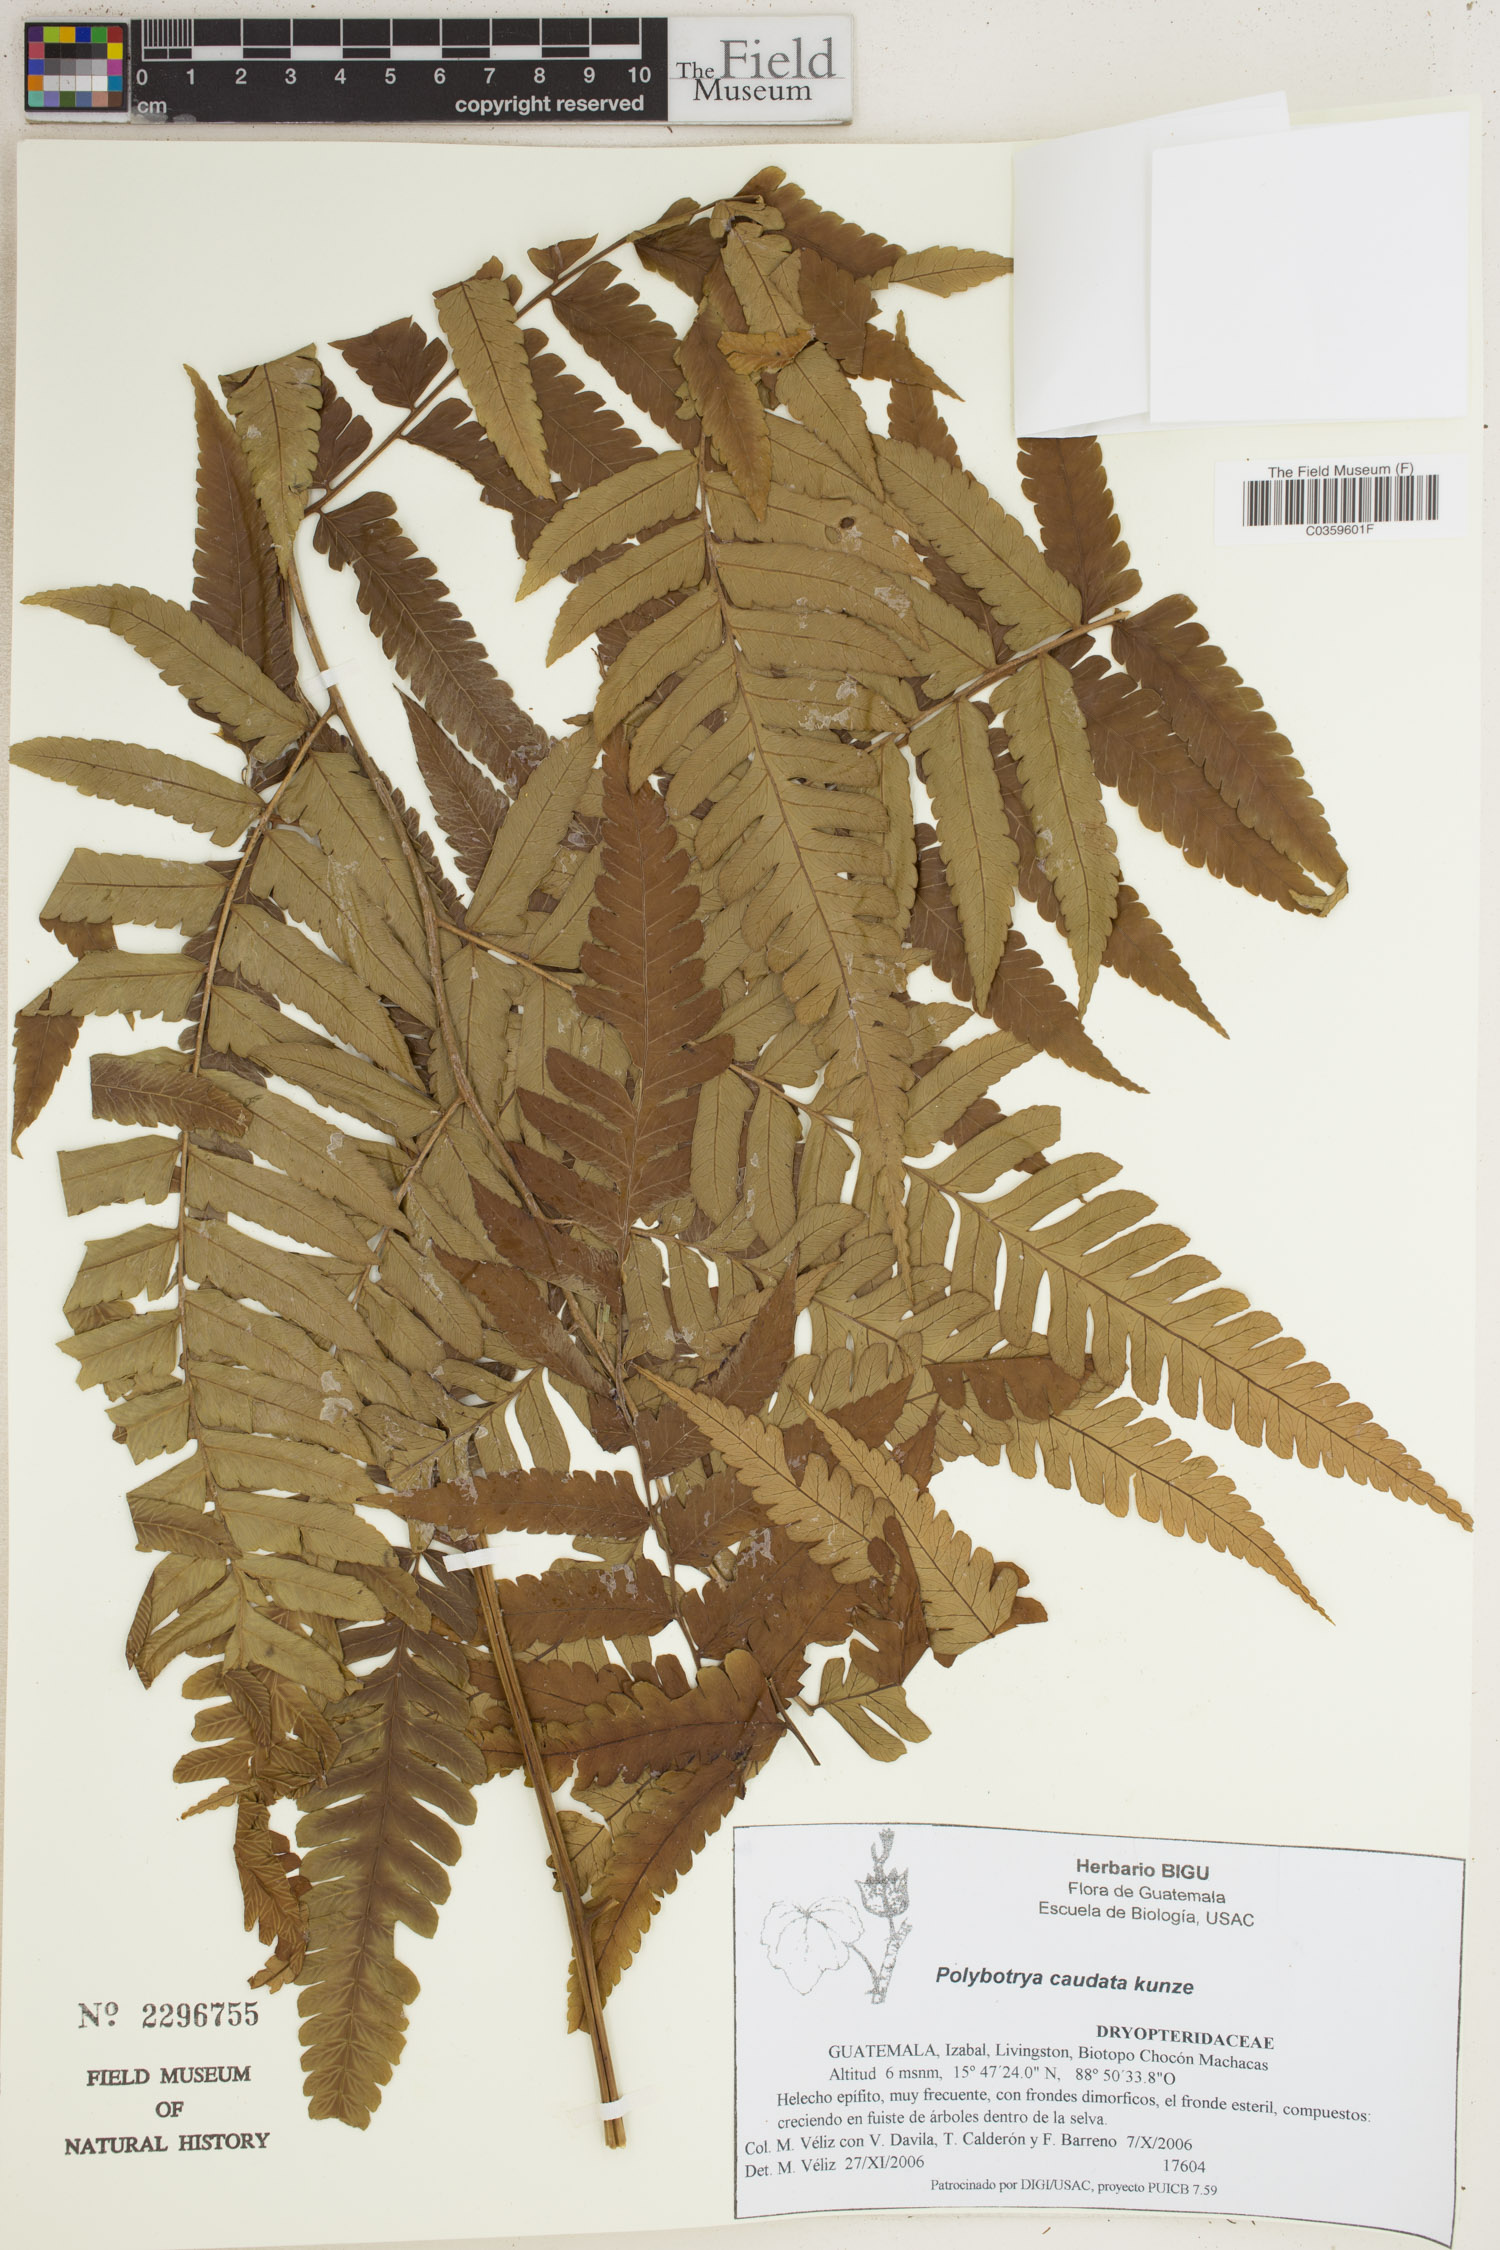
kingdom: Plantae
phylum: Tracheophyta
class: Polypodiopsida
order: Polypodiales
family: Dryopteridaceae
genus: Polybotrya
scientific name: Polybotrya caudata
